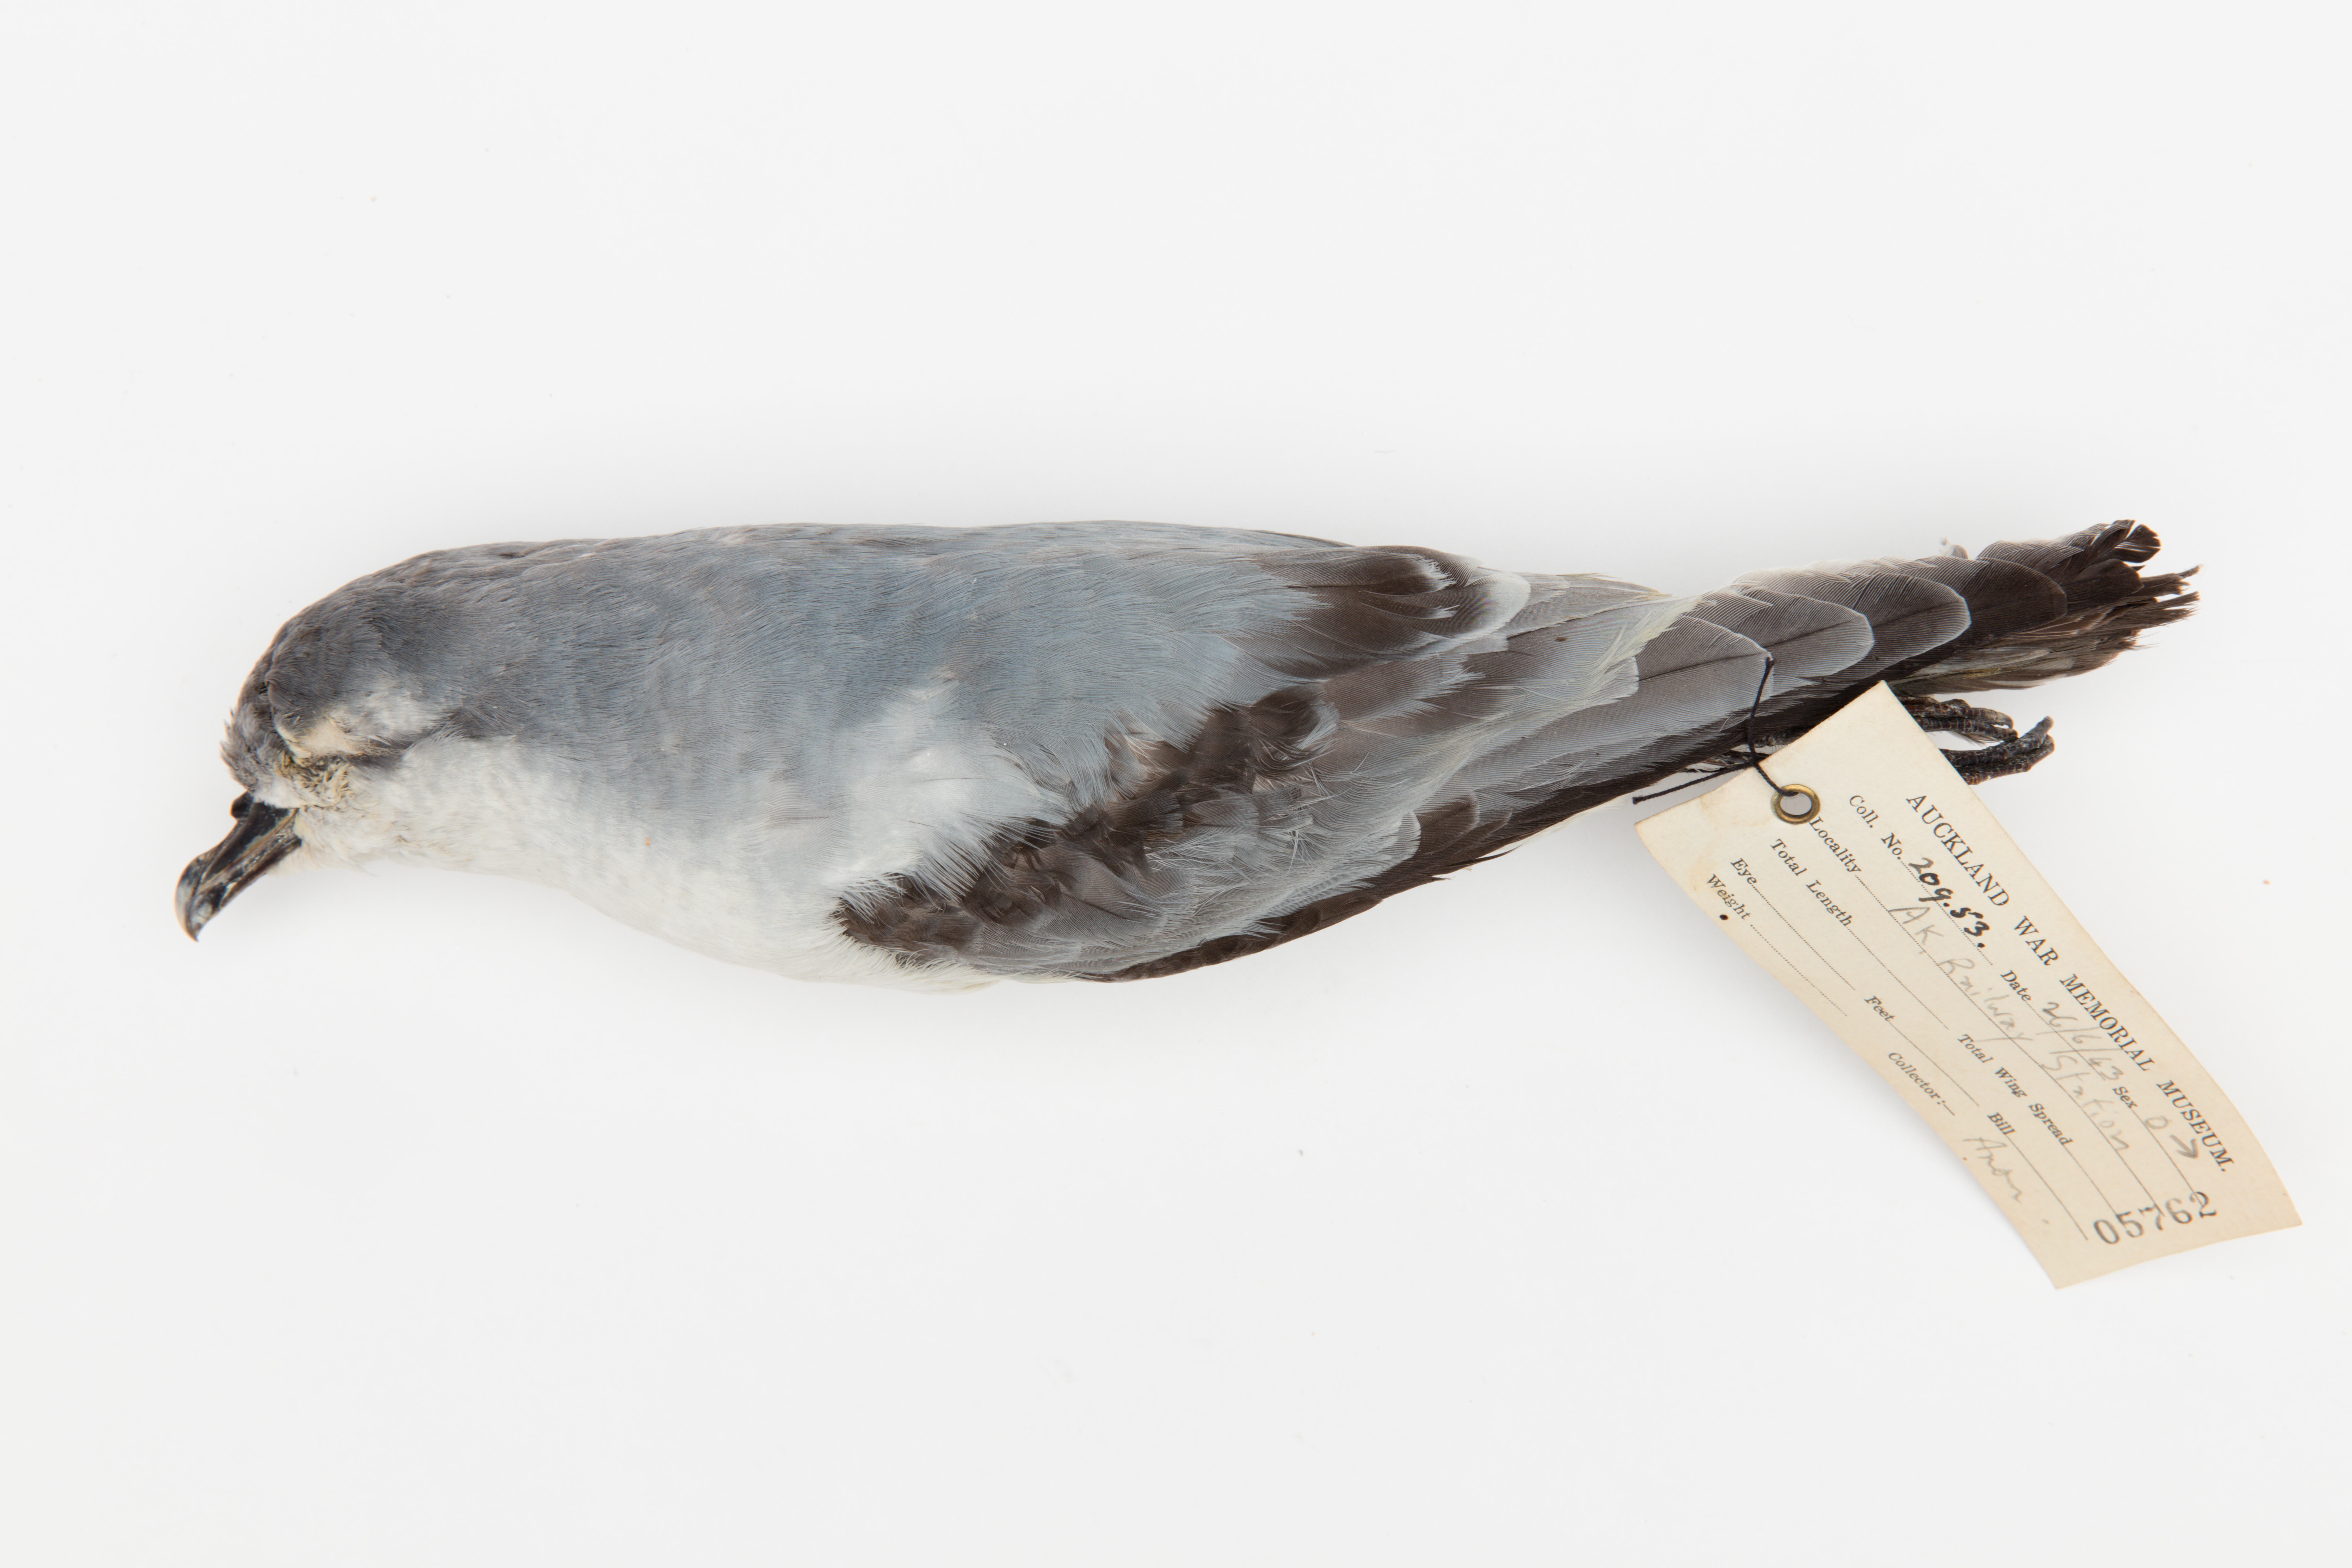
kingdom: Animalia
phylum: Chordata
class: Aves
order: Procellariiformes
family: Procellariidae
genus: Pachyptila
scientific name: Pachyptila turtur
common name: Fairy prion
